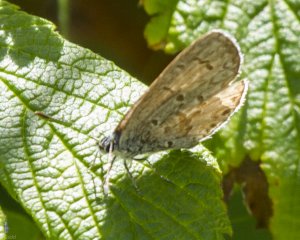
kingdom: Animalia
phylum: Arthropoda
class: Insecta
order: Lepidoptera
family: Lycaenidae
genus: Cyaniris
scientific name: Cyaniris neglecta
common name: Summer Azure
